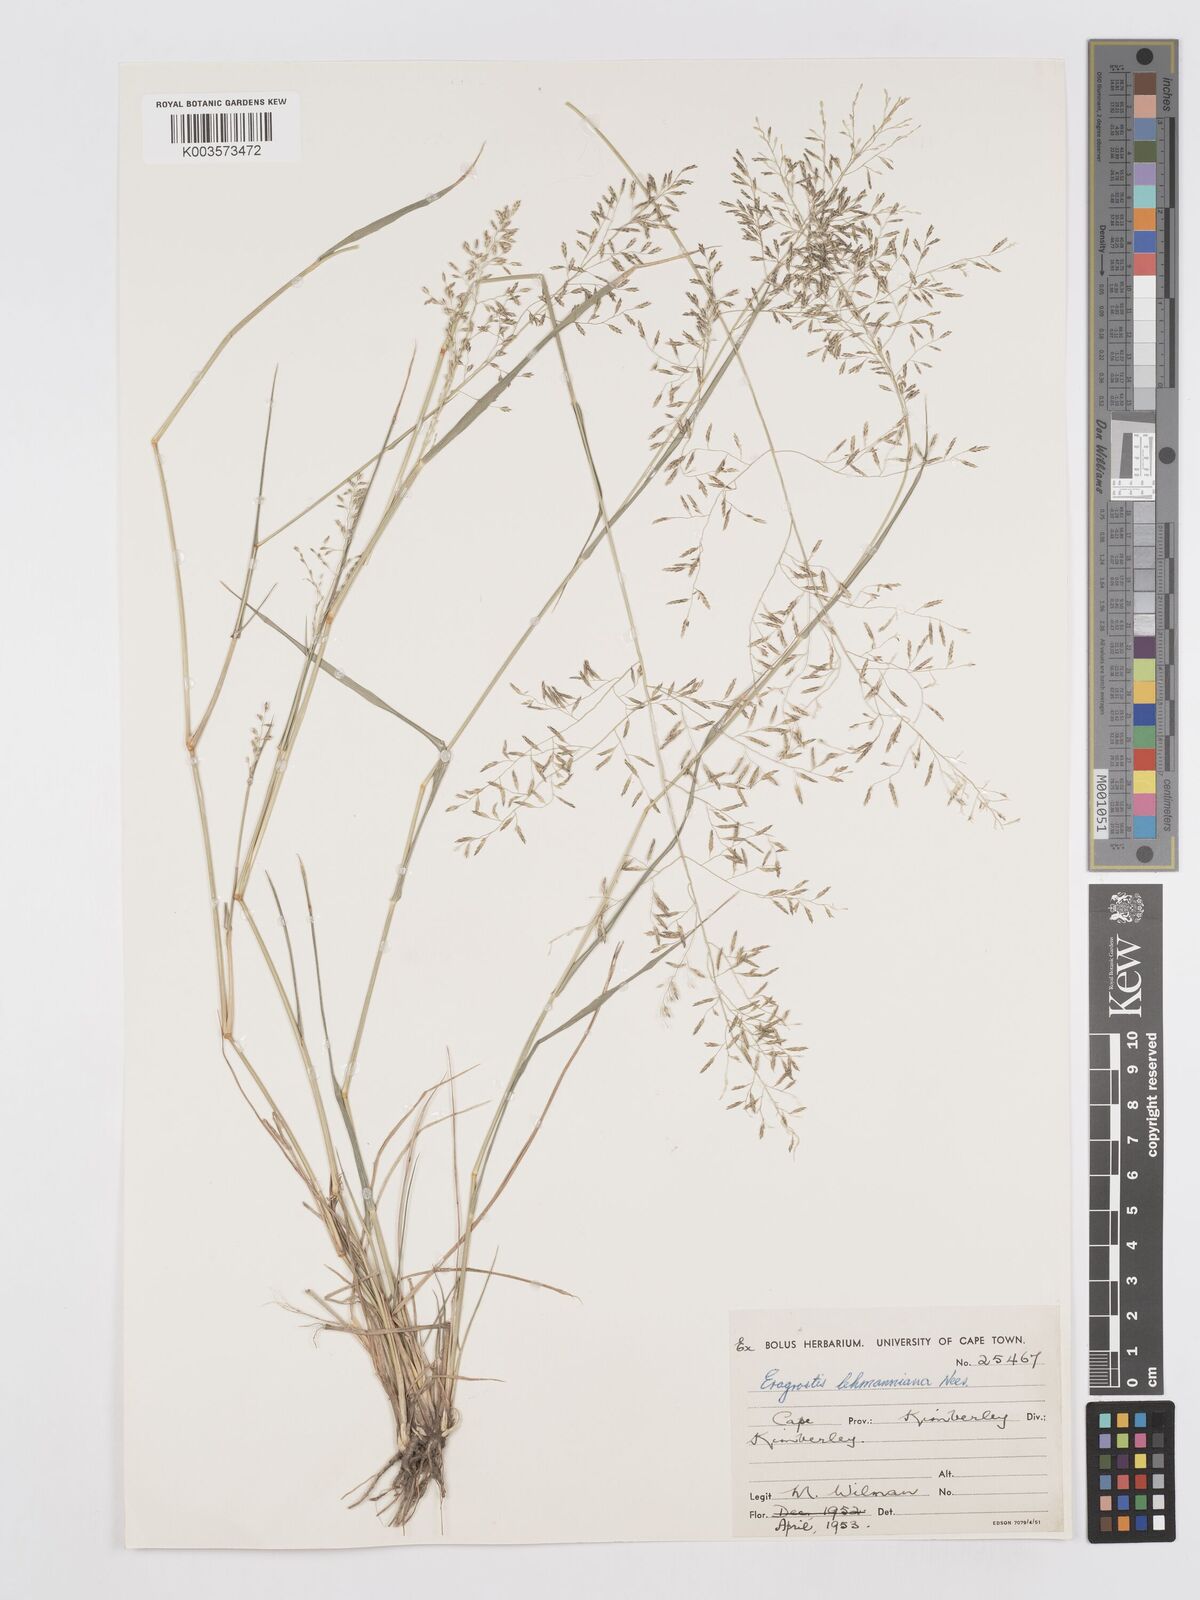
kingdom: Plantae
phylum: Tracheophyta
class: Liliopsida
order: Poales
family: Poaceae
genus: Eragrostis
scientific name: Eragrostis lehmanniana
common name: Lehmann lovegrass
